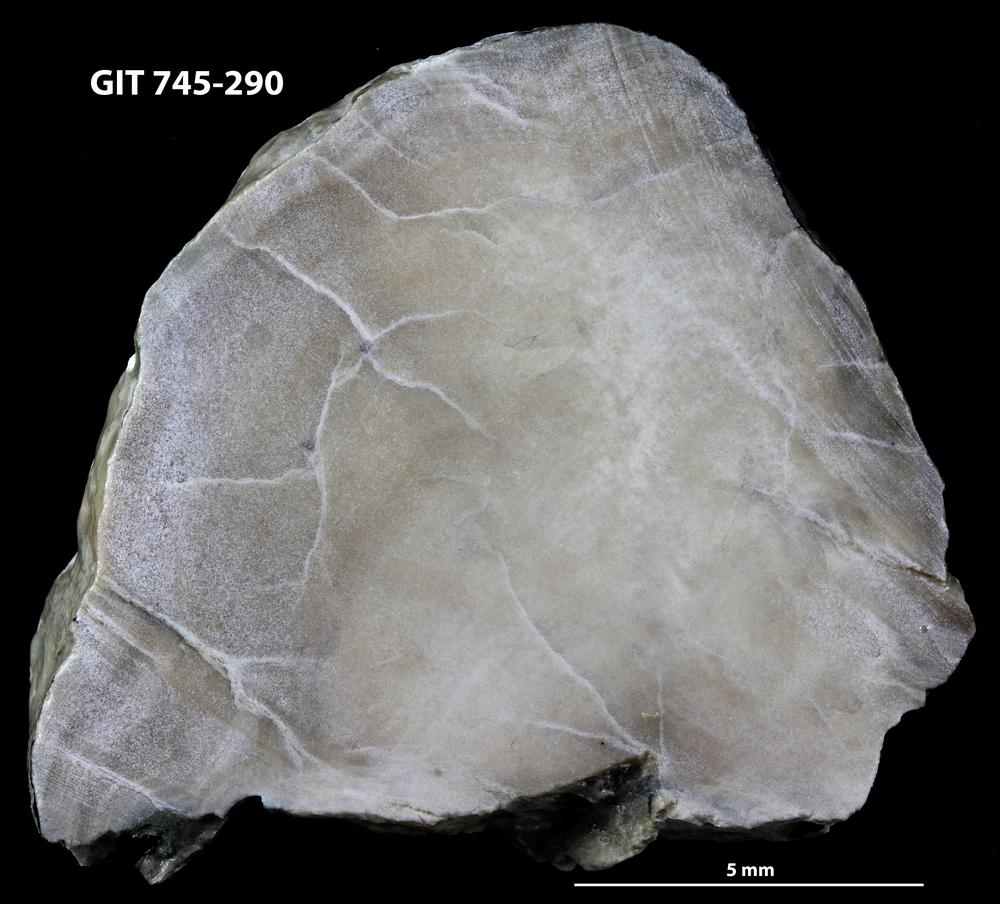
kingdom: Animalia
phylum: Porifera
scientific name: Porifera
